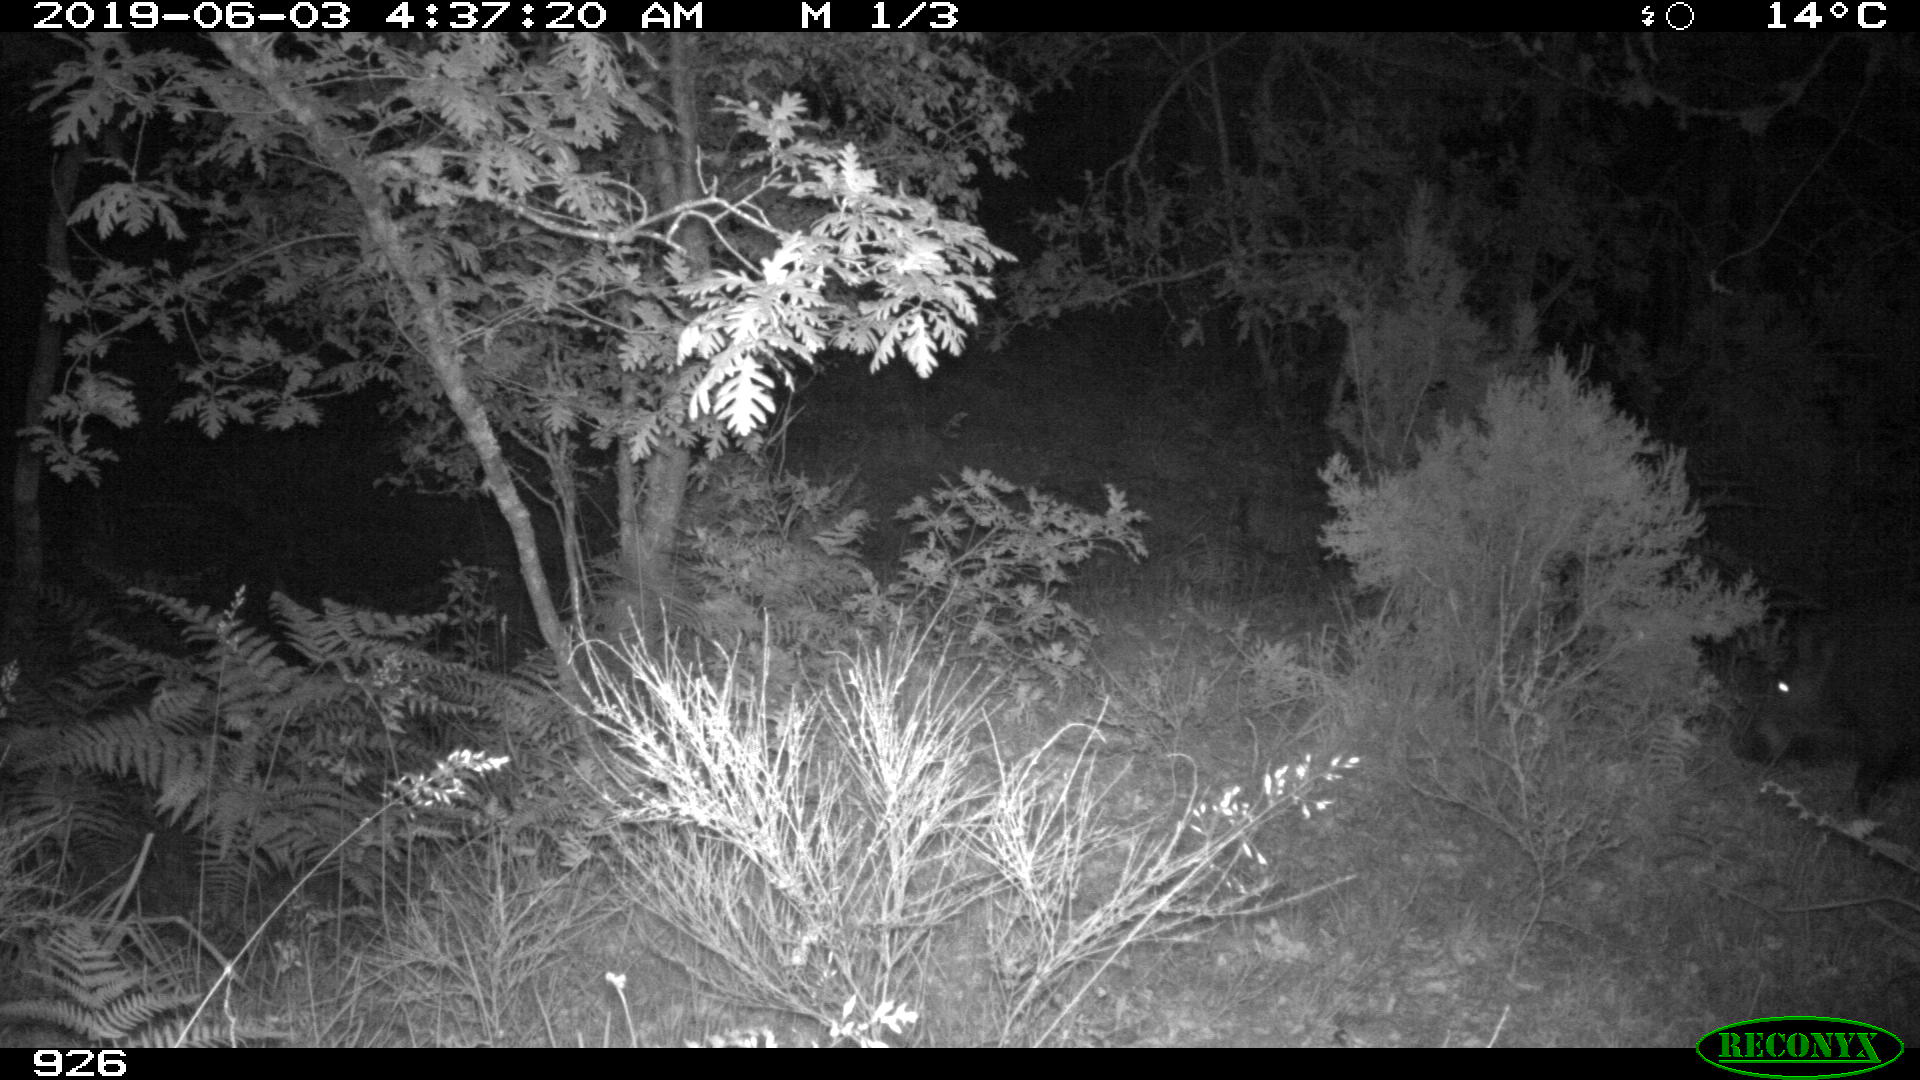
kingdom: Animalia
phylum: Chordata
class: Mammalia
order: Artiodactyla
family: Suidae
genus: Sus
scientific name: Sus scrofa
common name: Wild boar
